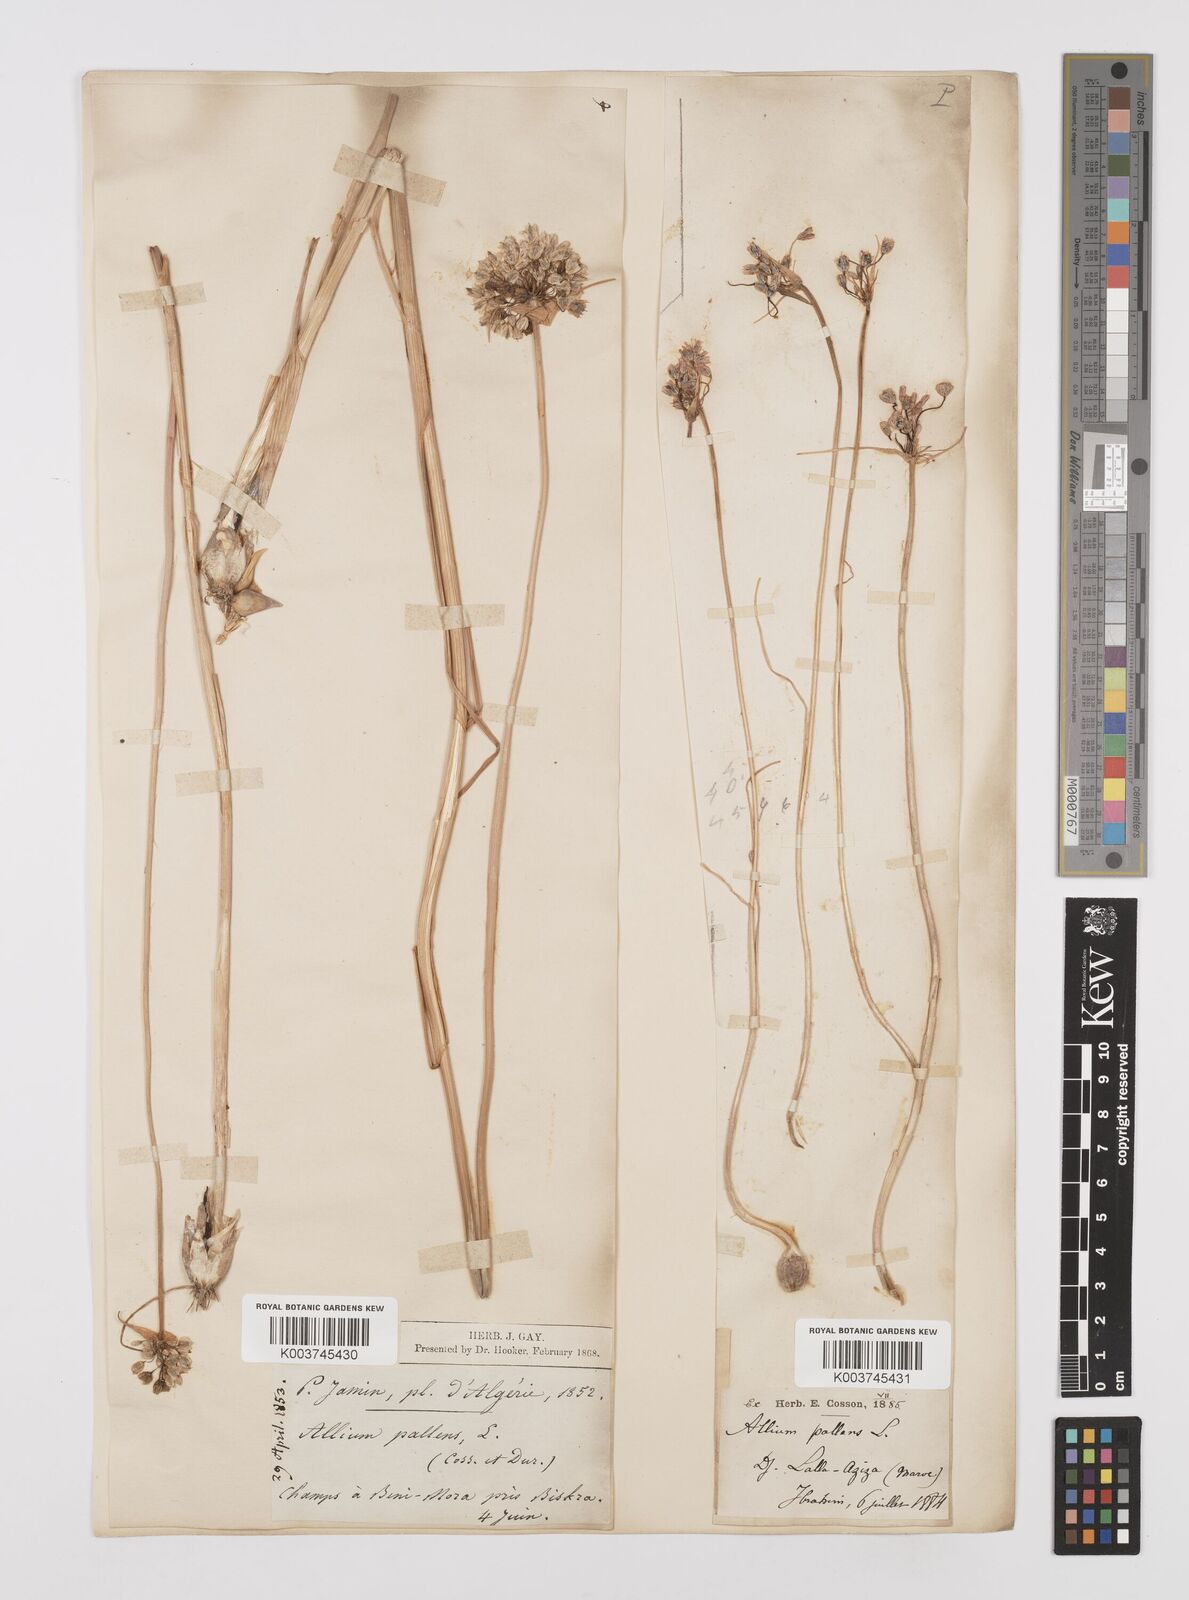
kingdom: Plantae
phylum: Tracheophyta
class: Liliopsida
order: Asparagales
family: Amaryllidaceae
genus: Allium
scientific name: Allium paniculatum
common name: Pale garlic
